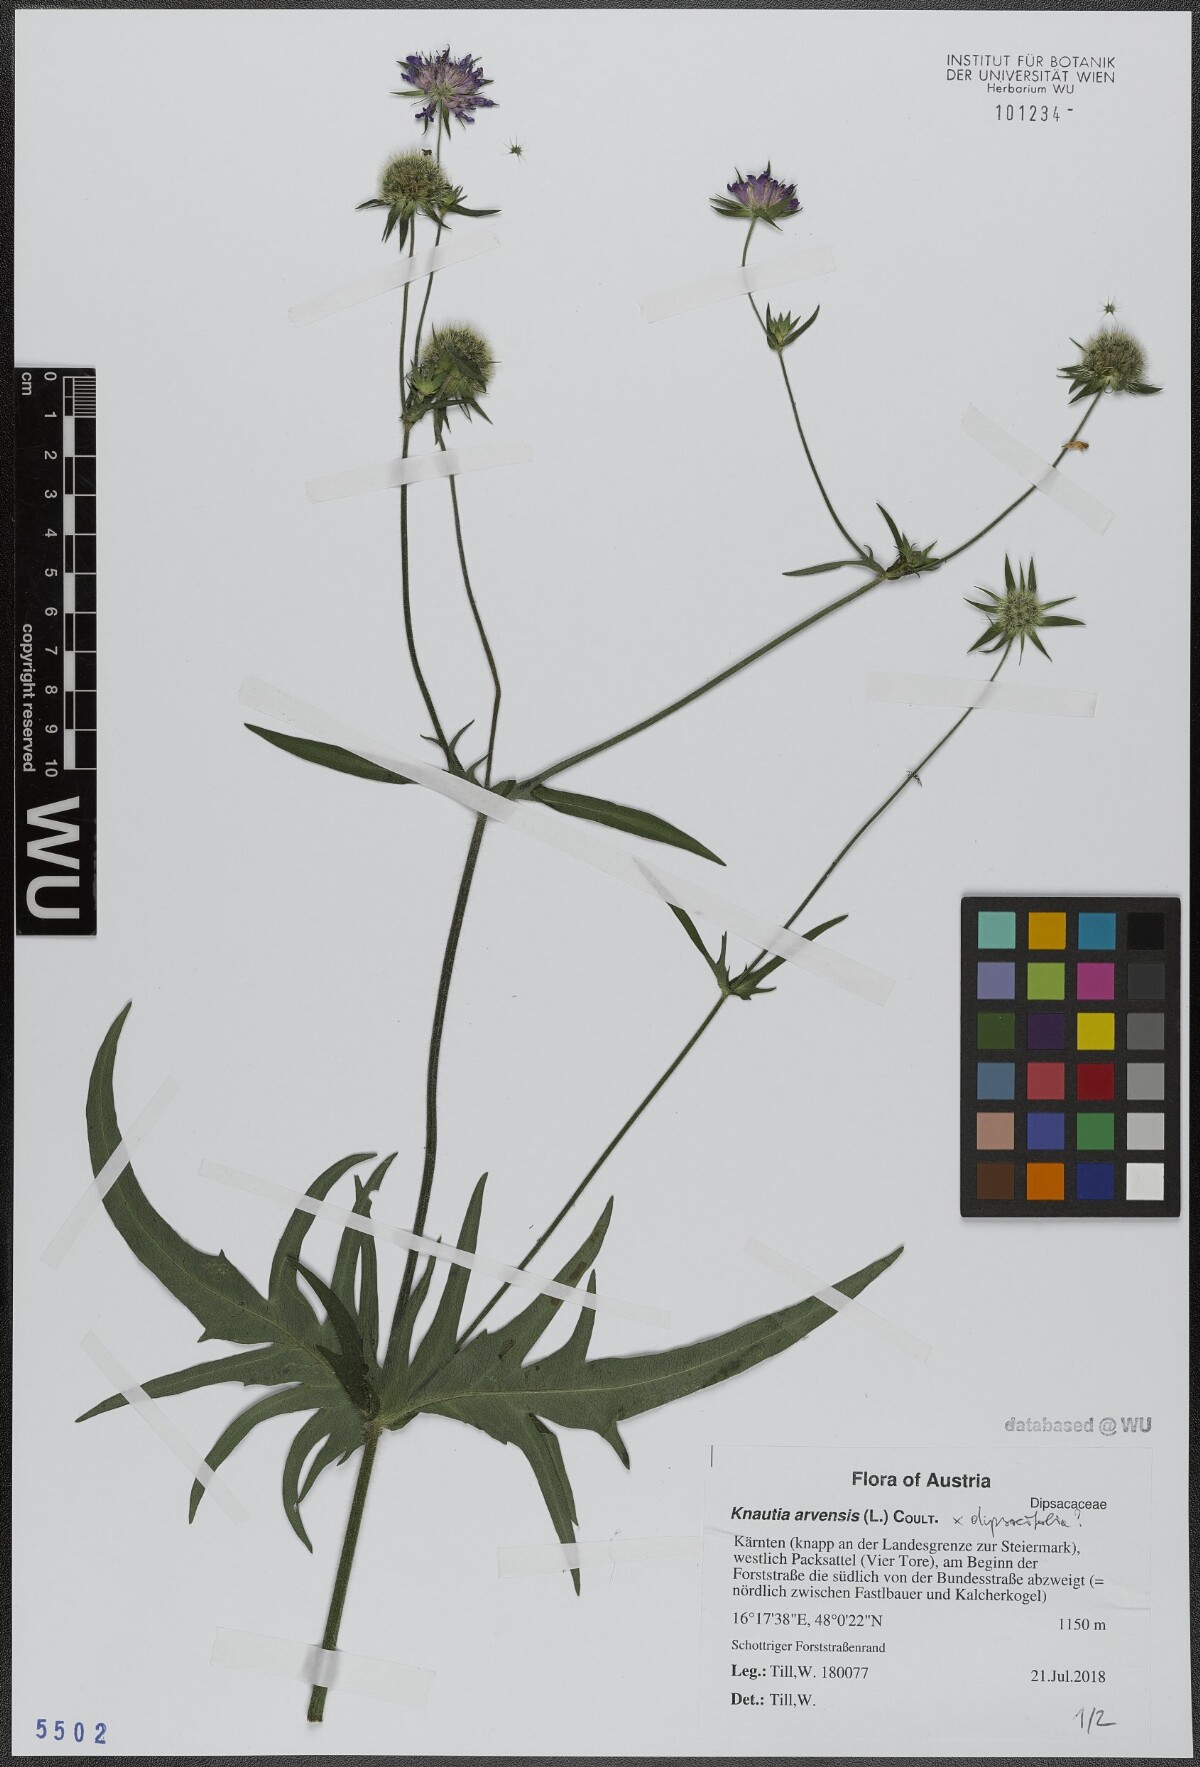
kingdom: Plantae
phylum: Tracheophyta
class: Magnoliopsida
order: Dipsacales
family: Caprifoliaceae
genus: Knautia
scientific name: Knautia arvensis
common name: Field scabiosa
